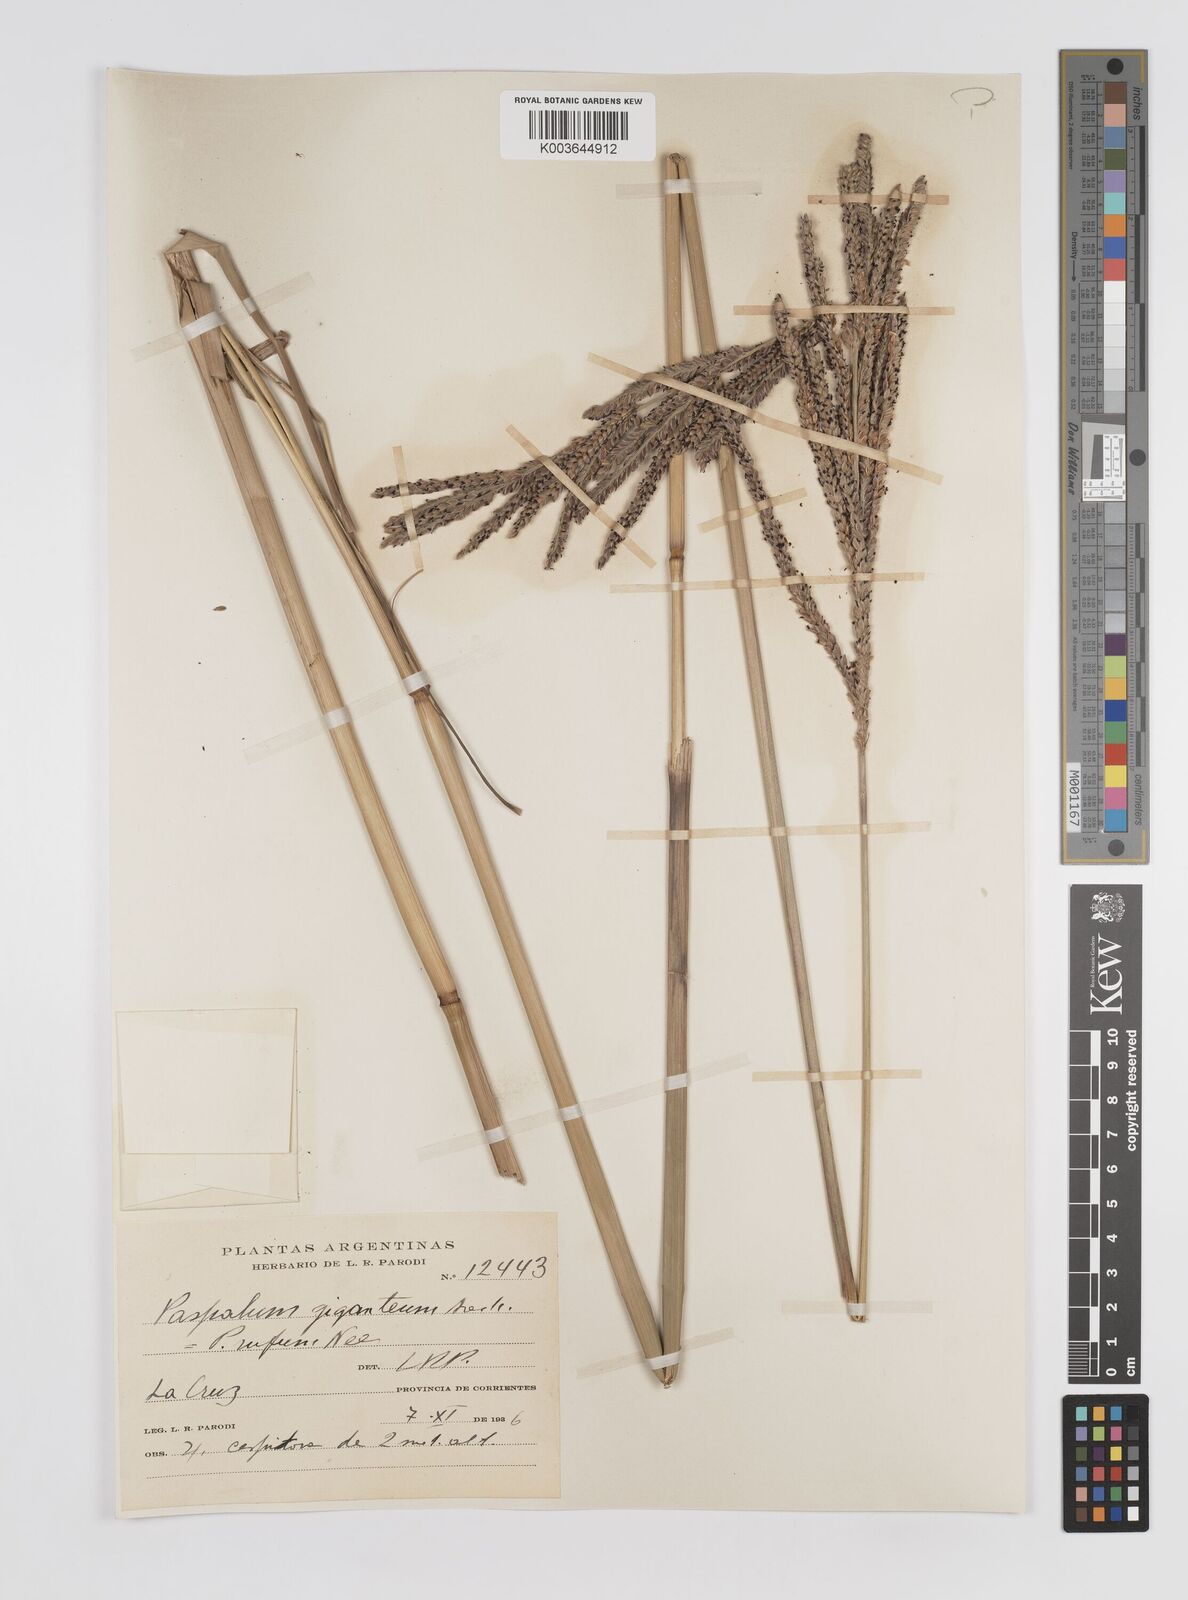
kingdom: Plantae
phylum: Tracheophyta
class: Liliopsida
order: Poales
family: Poaceae
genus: Paspalum
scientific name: Paspalum rufum
